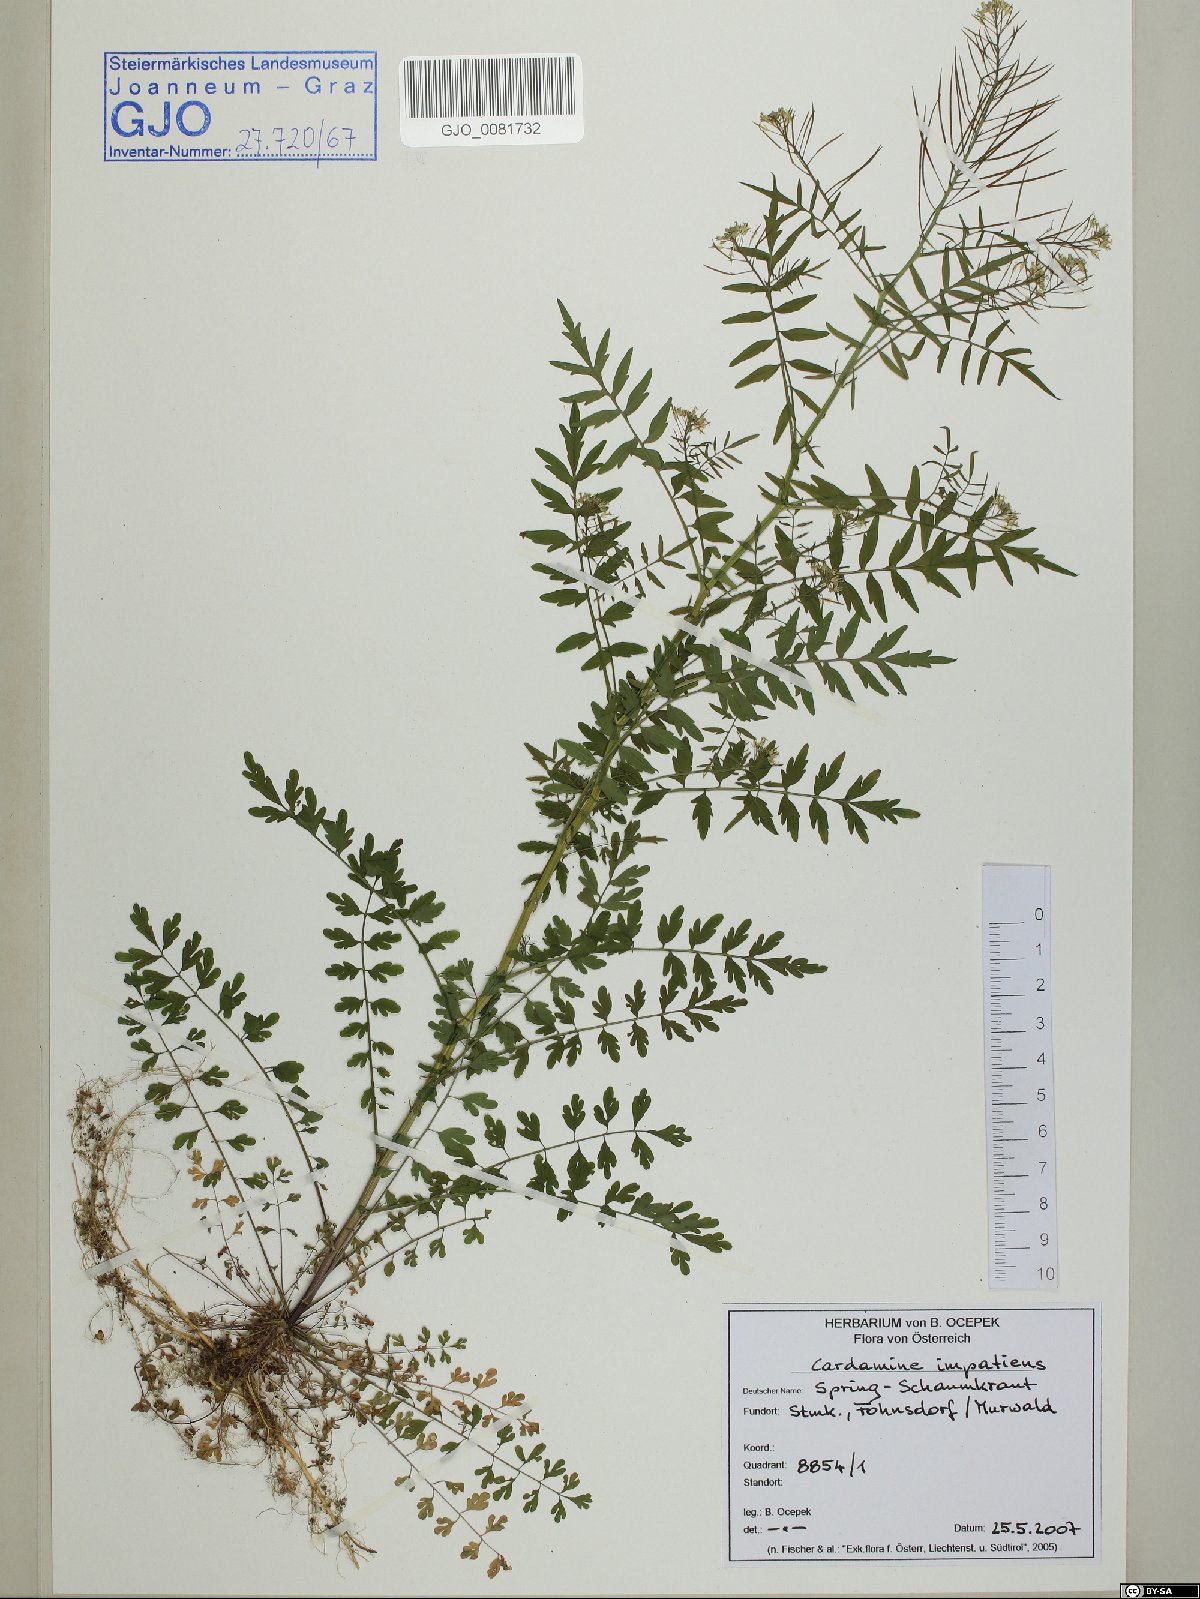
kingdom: Plantae
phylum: Tracheophyta
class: Magnoliopsida
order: Brassicales
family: Brassicaceae
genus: Cardamine
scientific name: Cardamine impatiens
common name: Narrow-leaved bitter-cress
